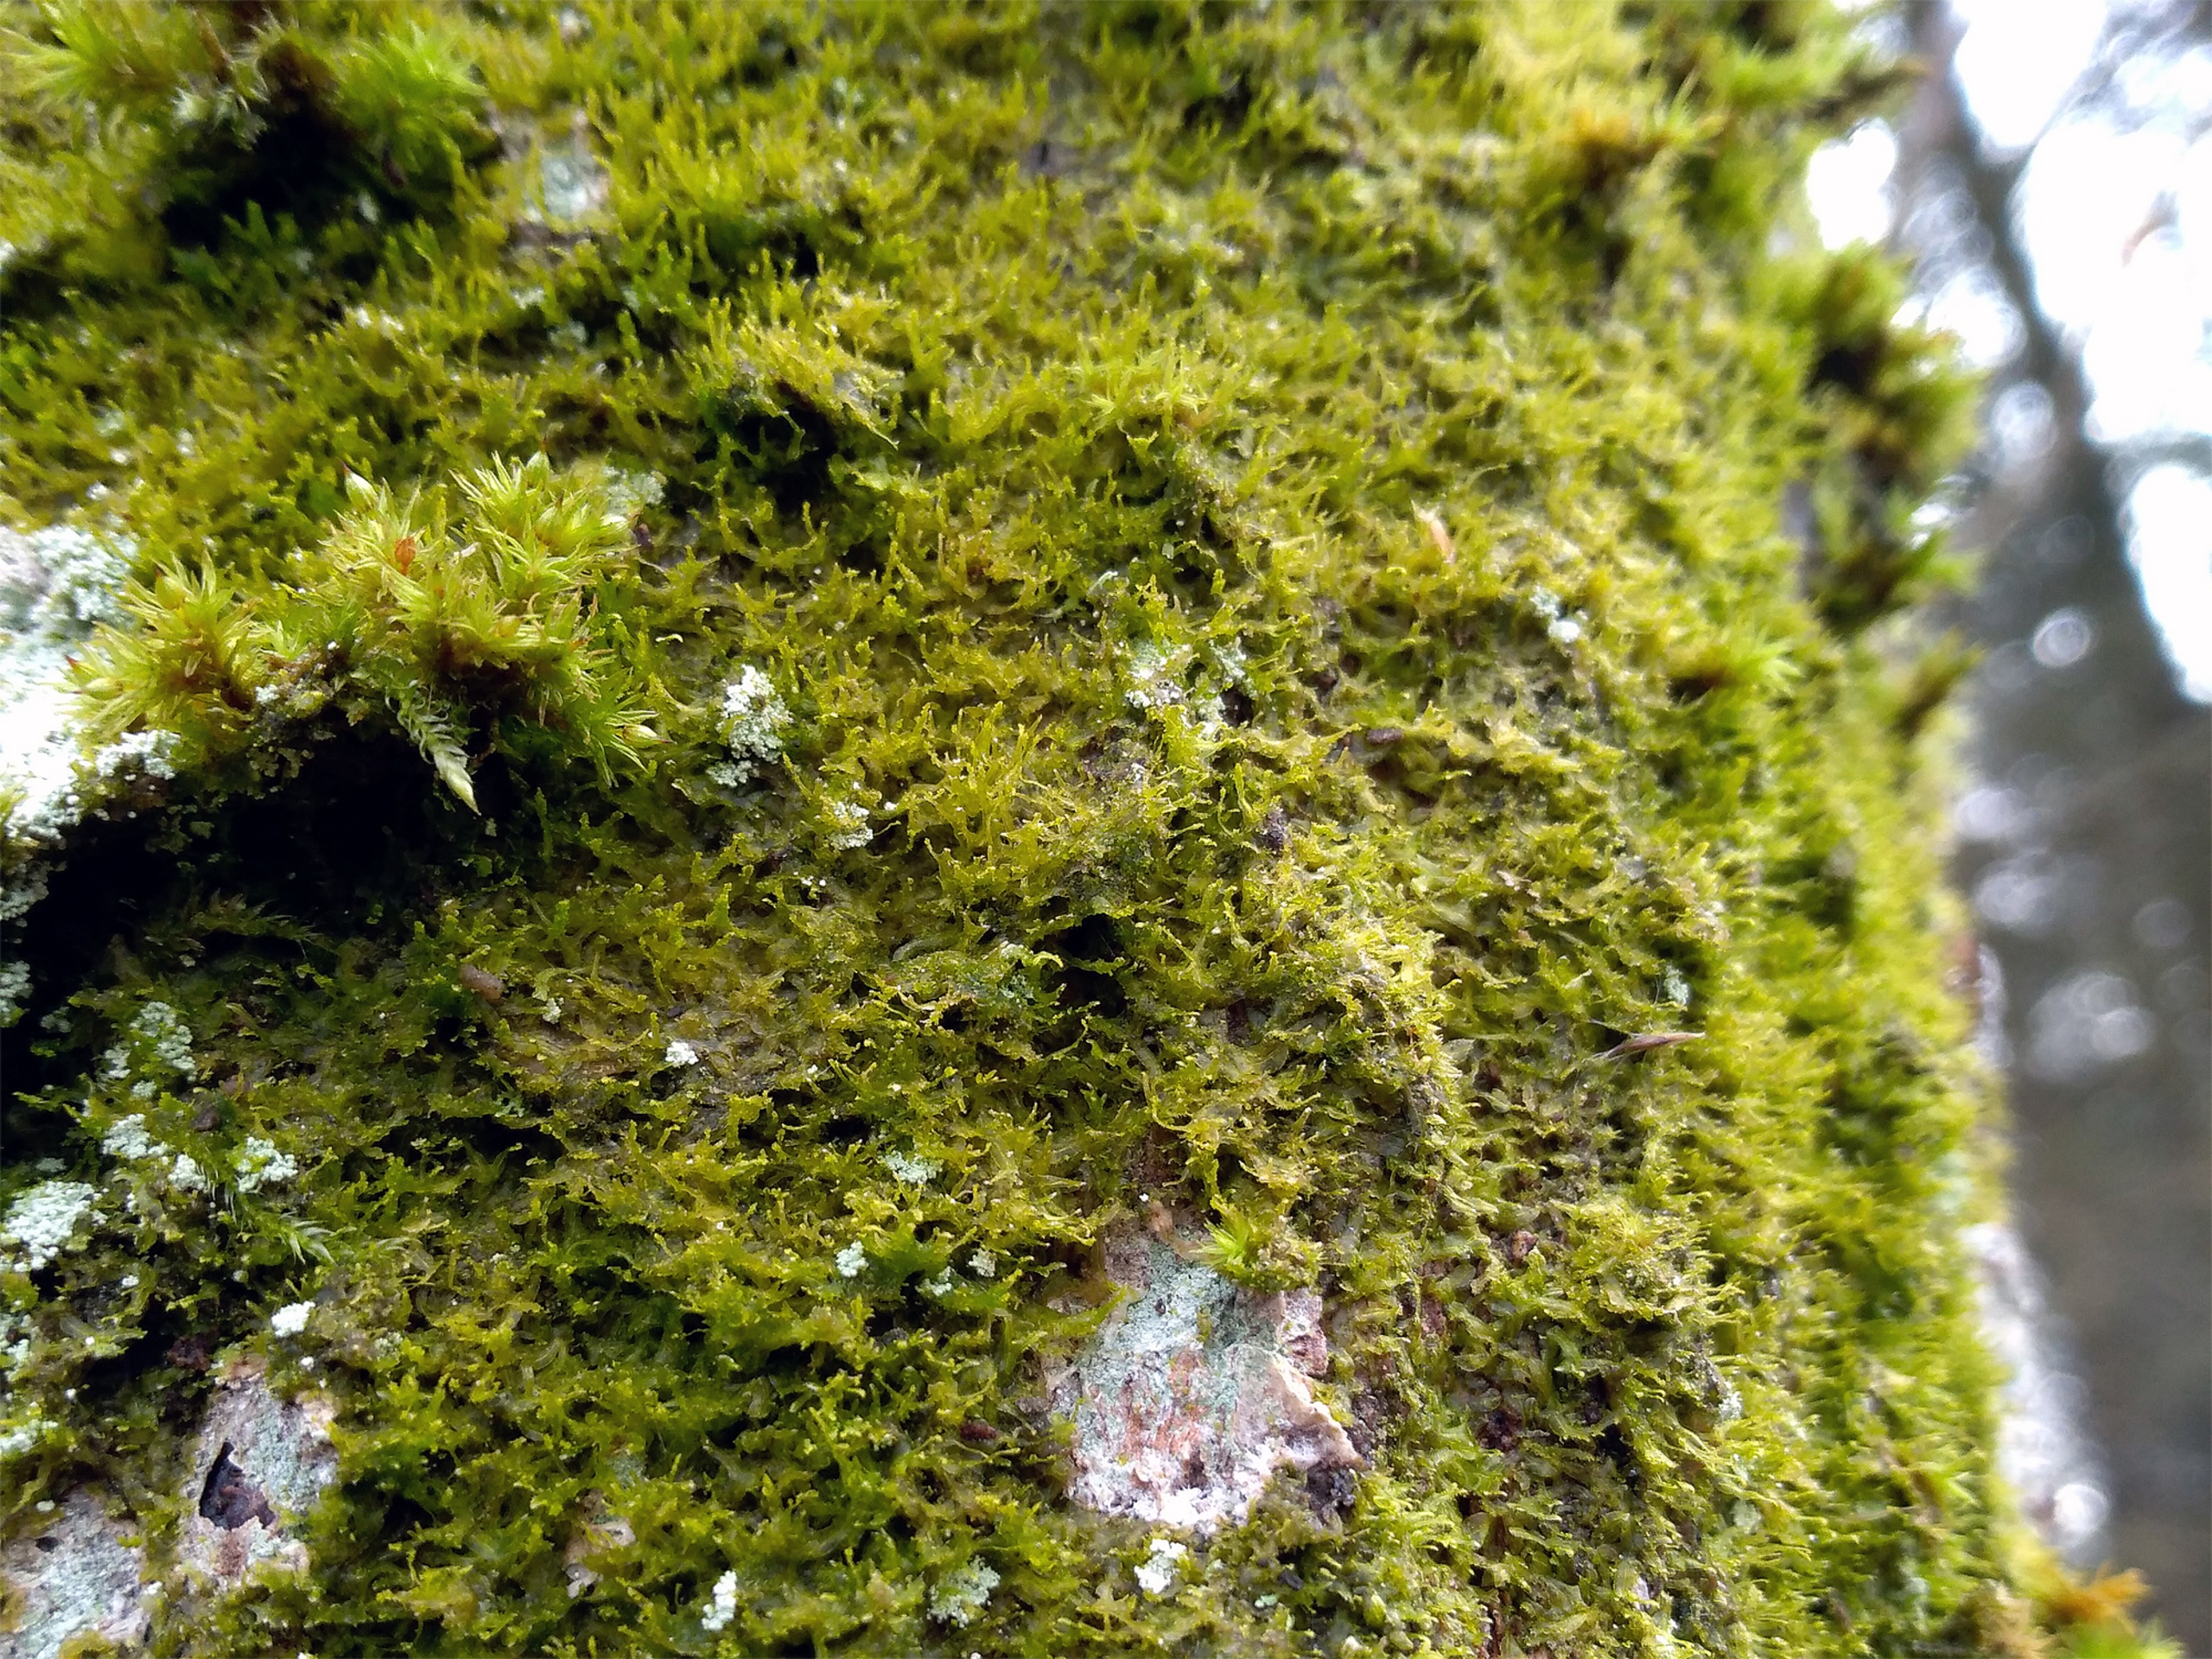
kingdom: Plantae
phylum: Marchantiophyta
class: Jungermanniopsida
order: Metzgeriales
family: Aneuraceae
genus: Riccardia
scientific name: Riccardia palmata
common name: Blågrøn gaffelløv
